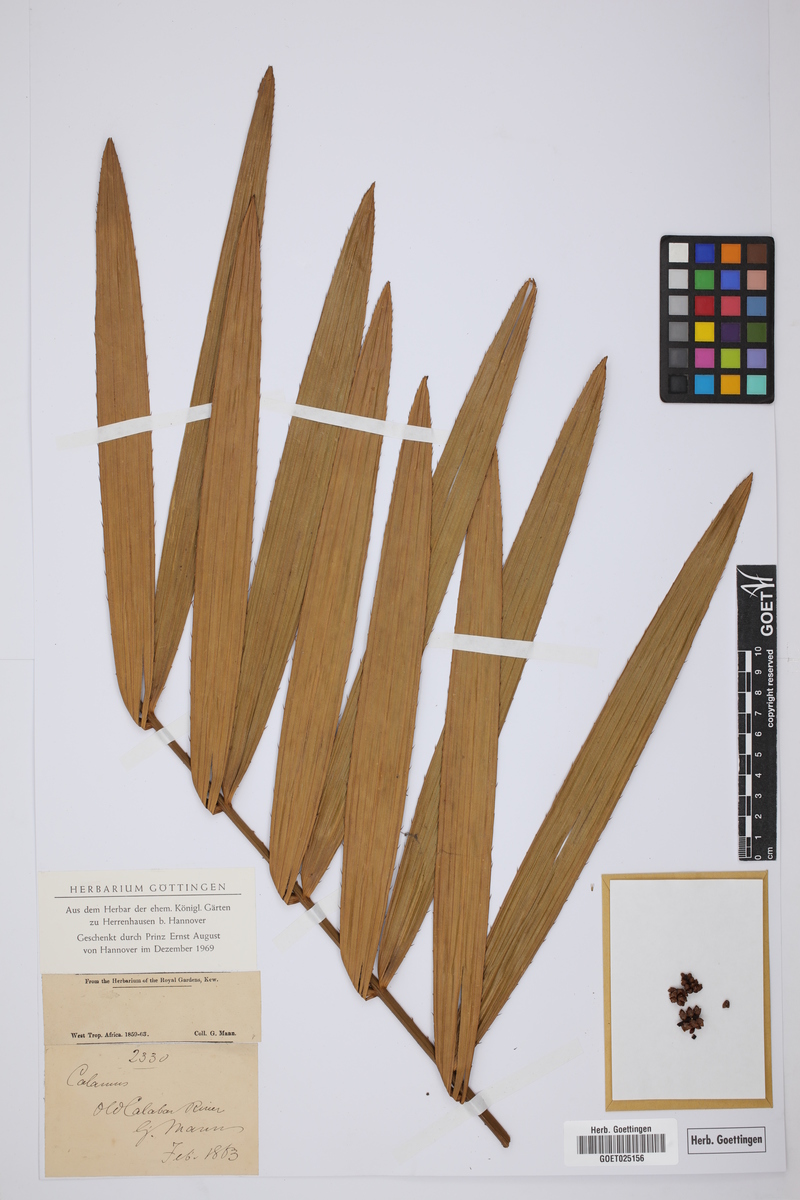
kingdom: Plantae
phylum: Tracheophyta
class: Liliopsida
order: Arecales
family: Arecaceae
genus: Calamus
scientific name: Calamus
